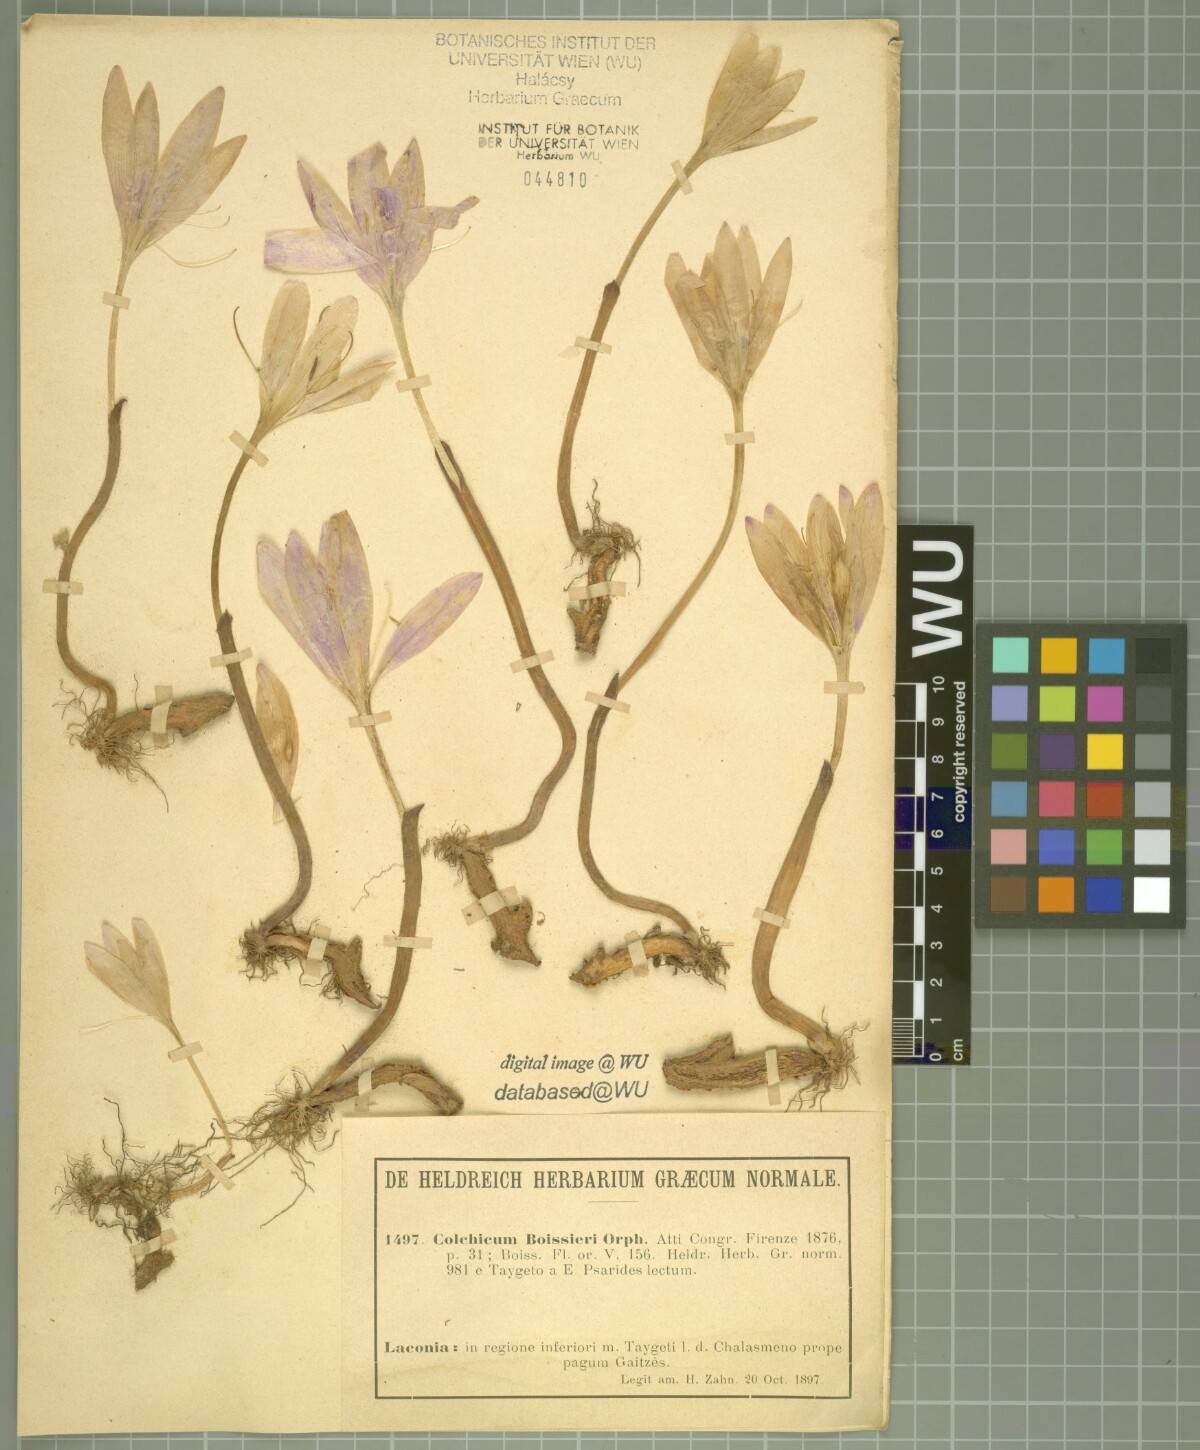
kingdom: Plantae
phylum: Tracheophyta
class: Liliopsida
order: Liliales
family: Colchicaceae
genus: Colchicum
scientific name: Colchicum boissieri
